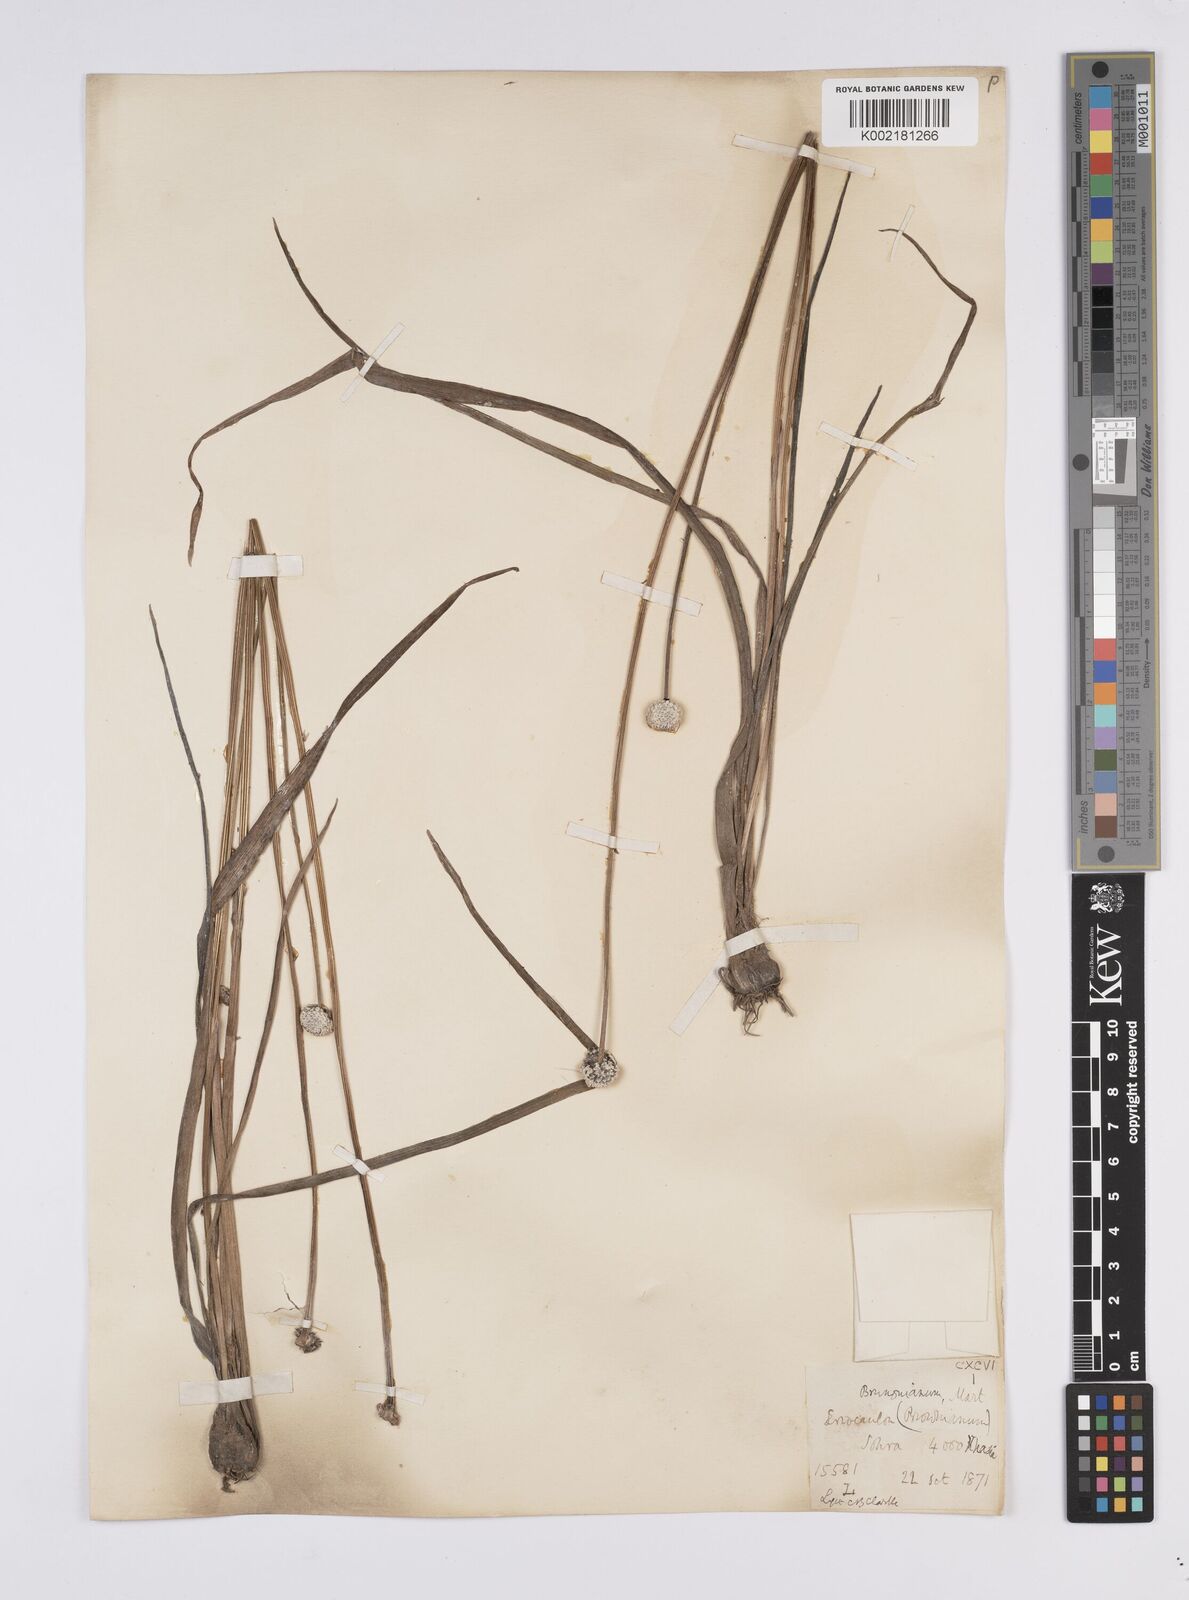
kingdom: Plantae
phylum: Tracheophyta
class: Liliopsida
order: Poales
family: Eriocaulaceae
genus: Eriocaulon
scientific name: Eriocaulon brownianum
